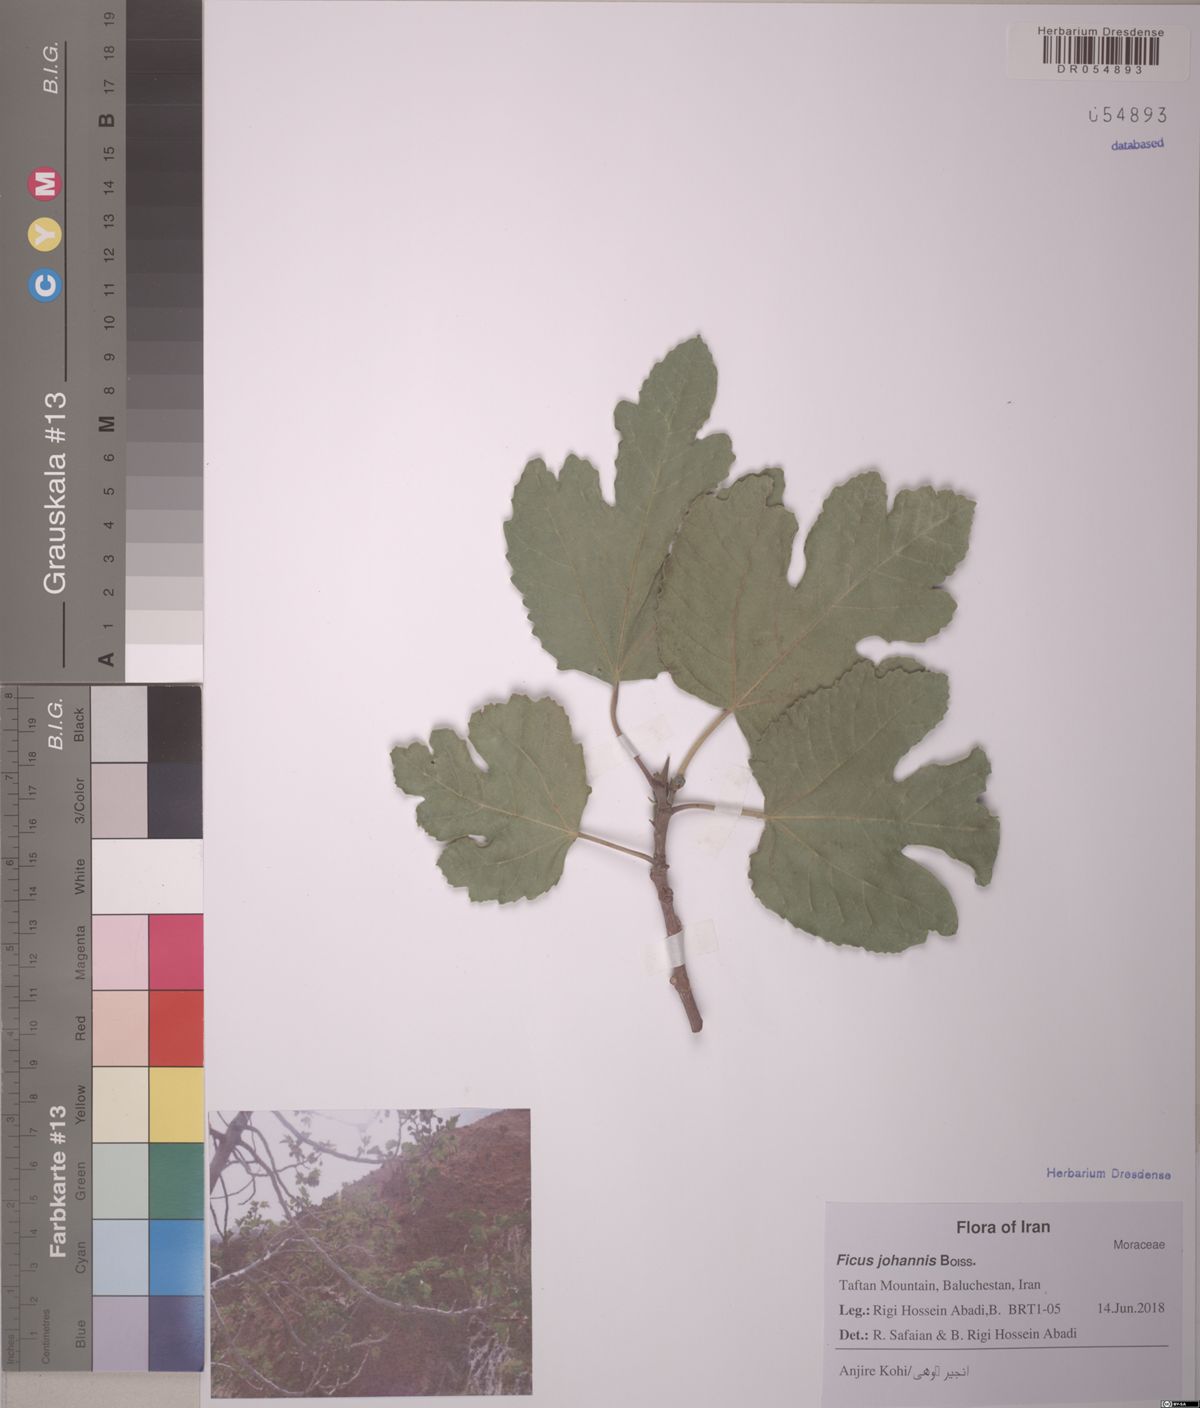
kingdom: Plantae
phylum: Tracheophyta
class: Magnoliopsida
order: Rosales
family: Moraceae
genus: Ficus
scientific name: Ficus johannis
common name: Mountain fig
